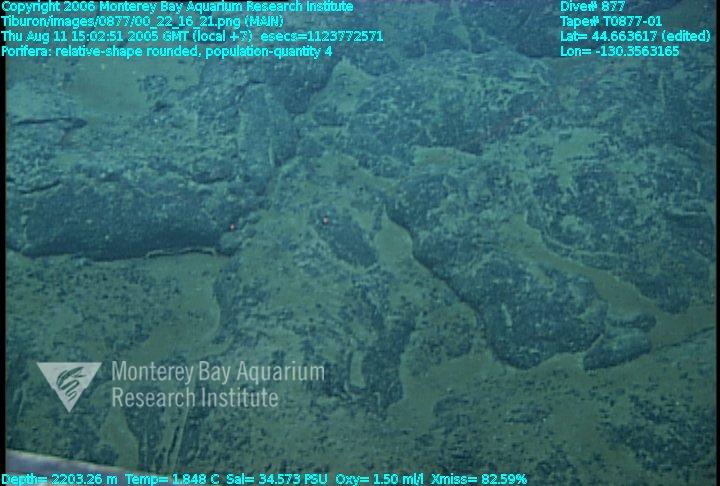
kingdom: Animalia
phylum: Porifera
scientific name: Porifera
